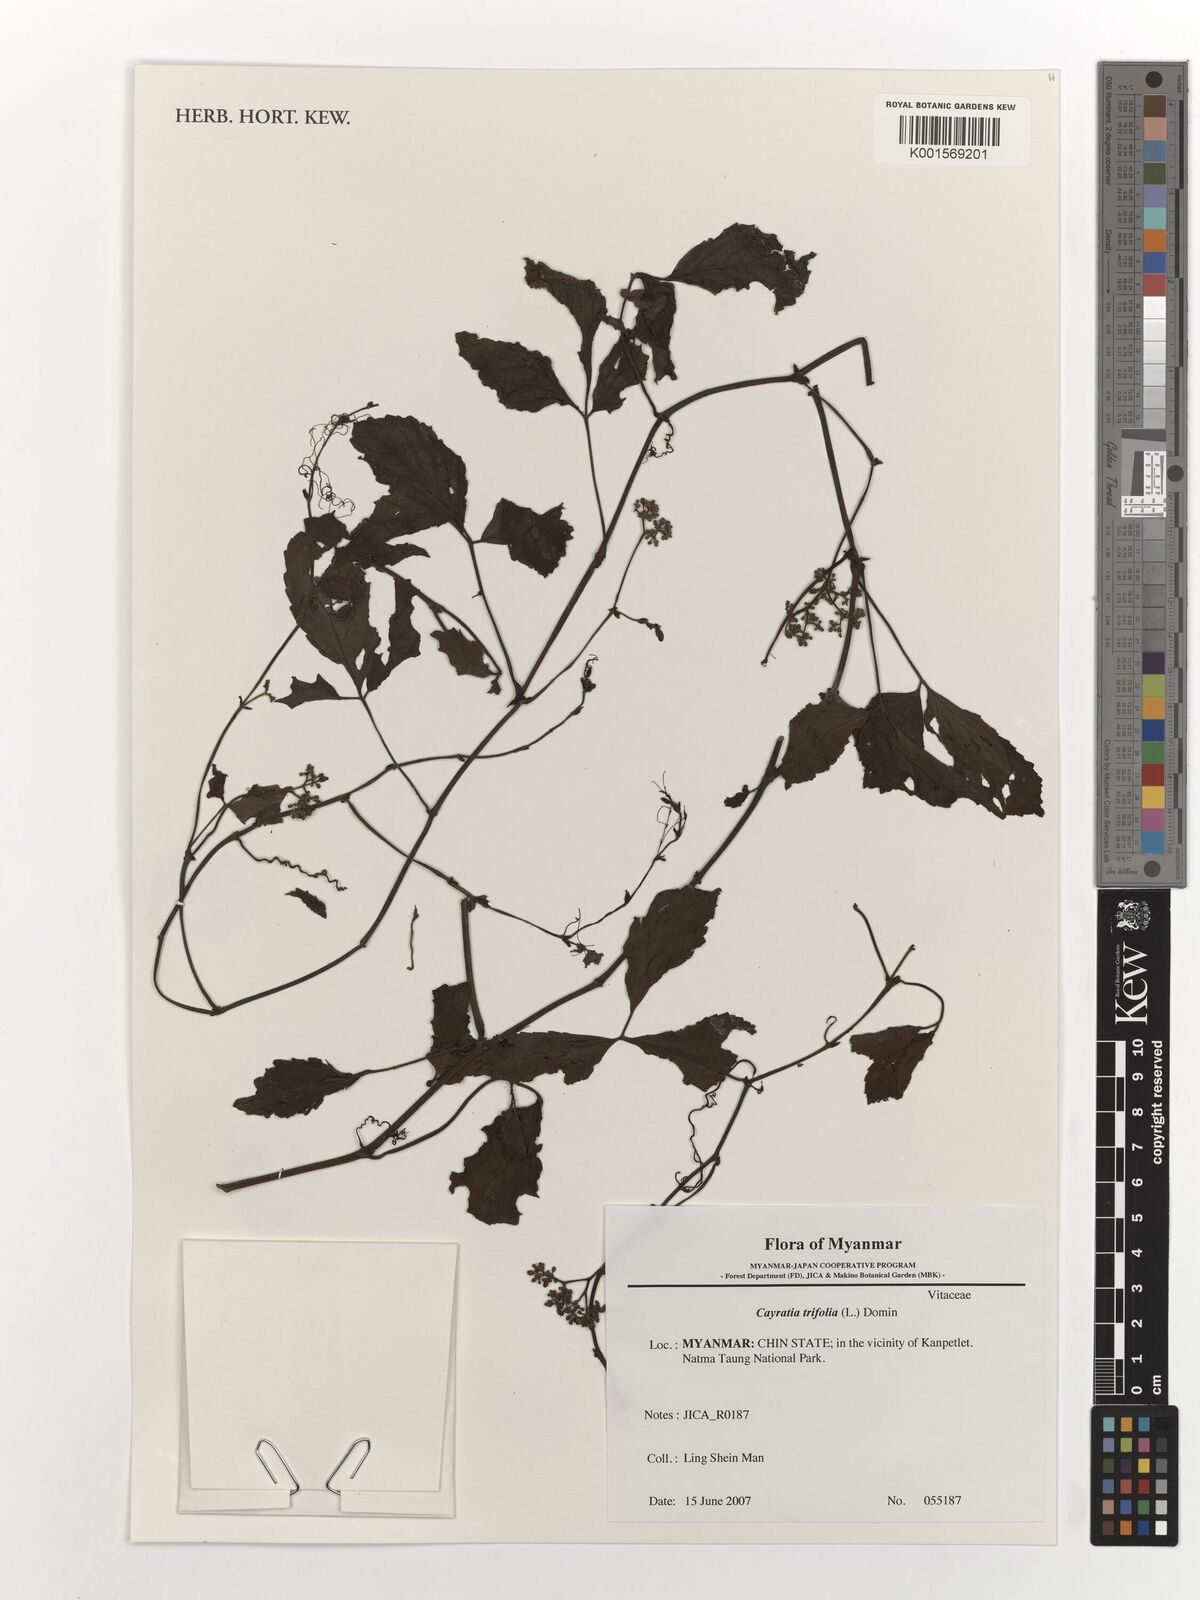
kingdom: Plantae
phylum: Tracheophyta
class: Magnoliopsida
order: Vitales
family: Vitaceae
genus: Causonis
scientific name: Causonis trifolia
